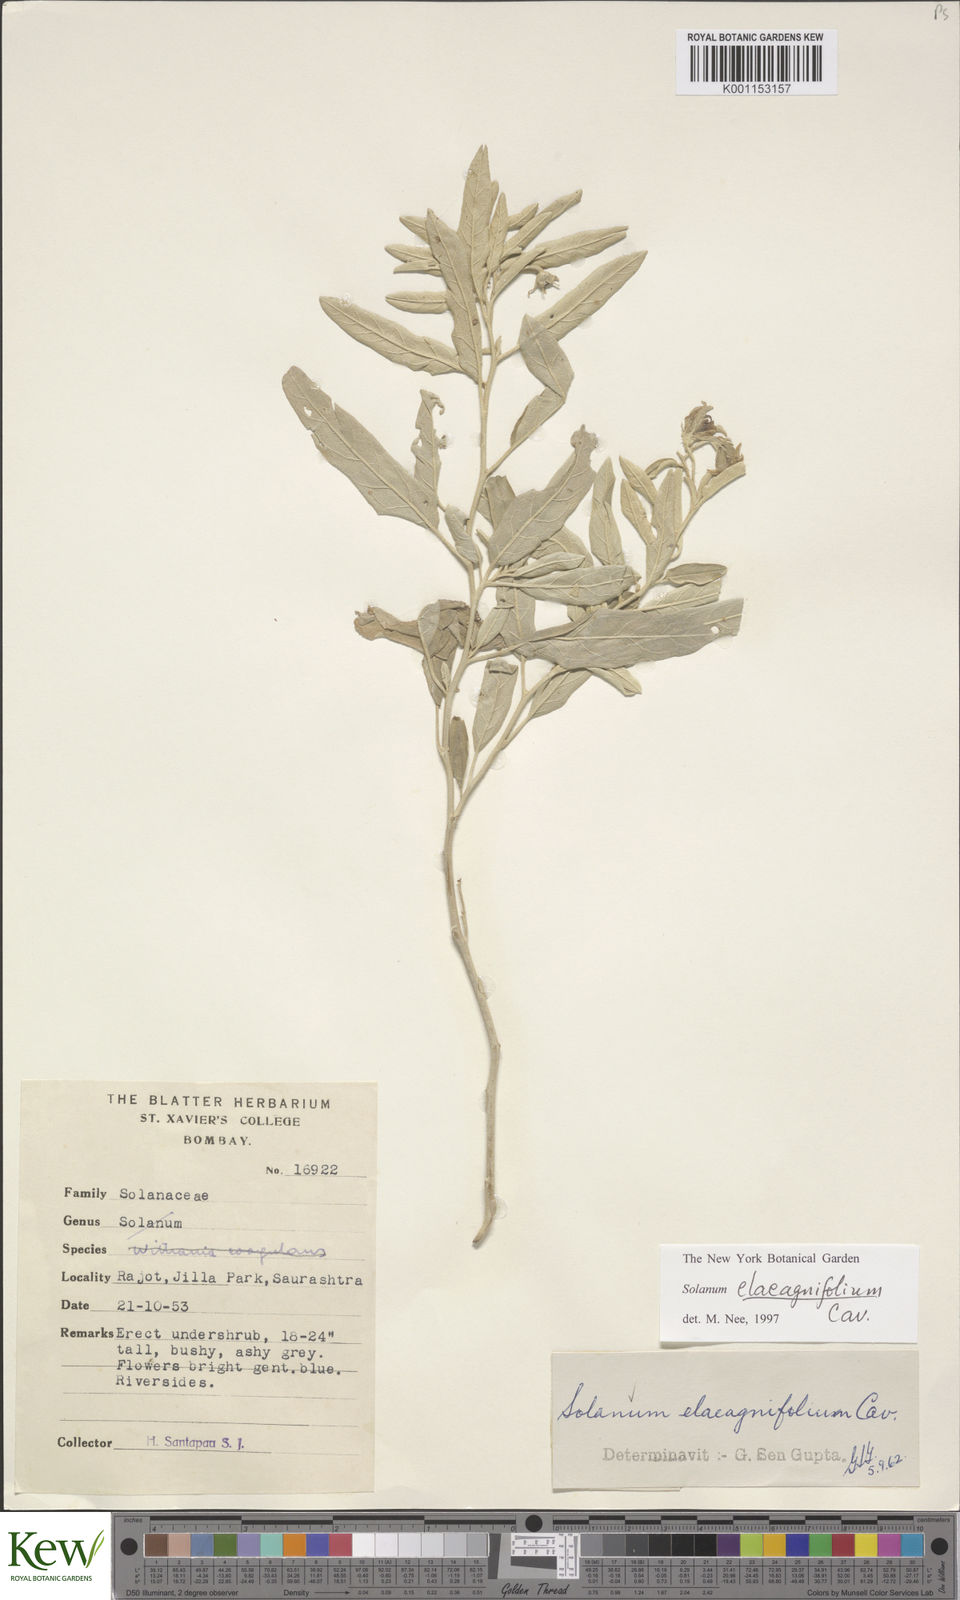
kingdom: Plantae
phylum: Tracheophyta
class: Magnoliopsida
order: Solanales
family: Solanaceae
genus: Solanum
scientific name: Solanum elaeagnifolium
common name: Silverleaf nightshade
